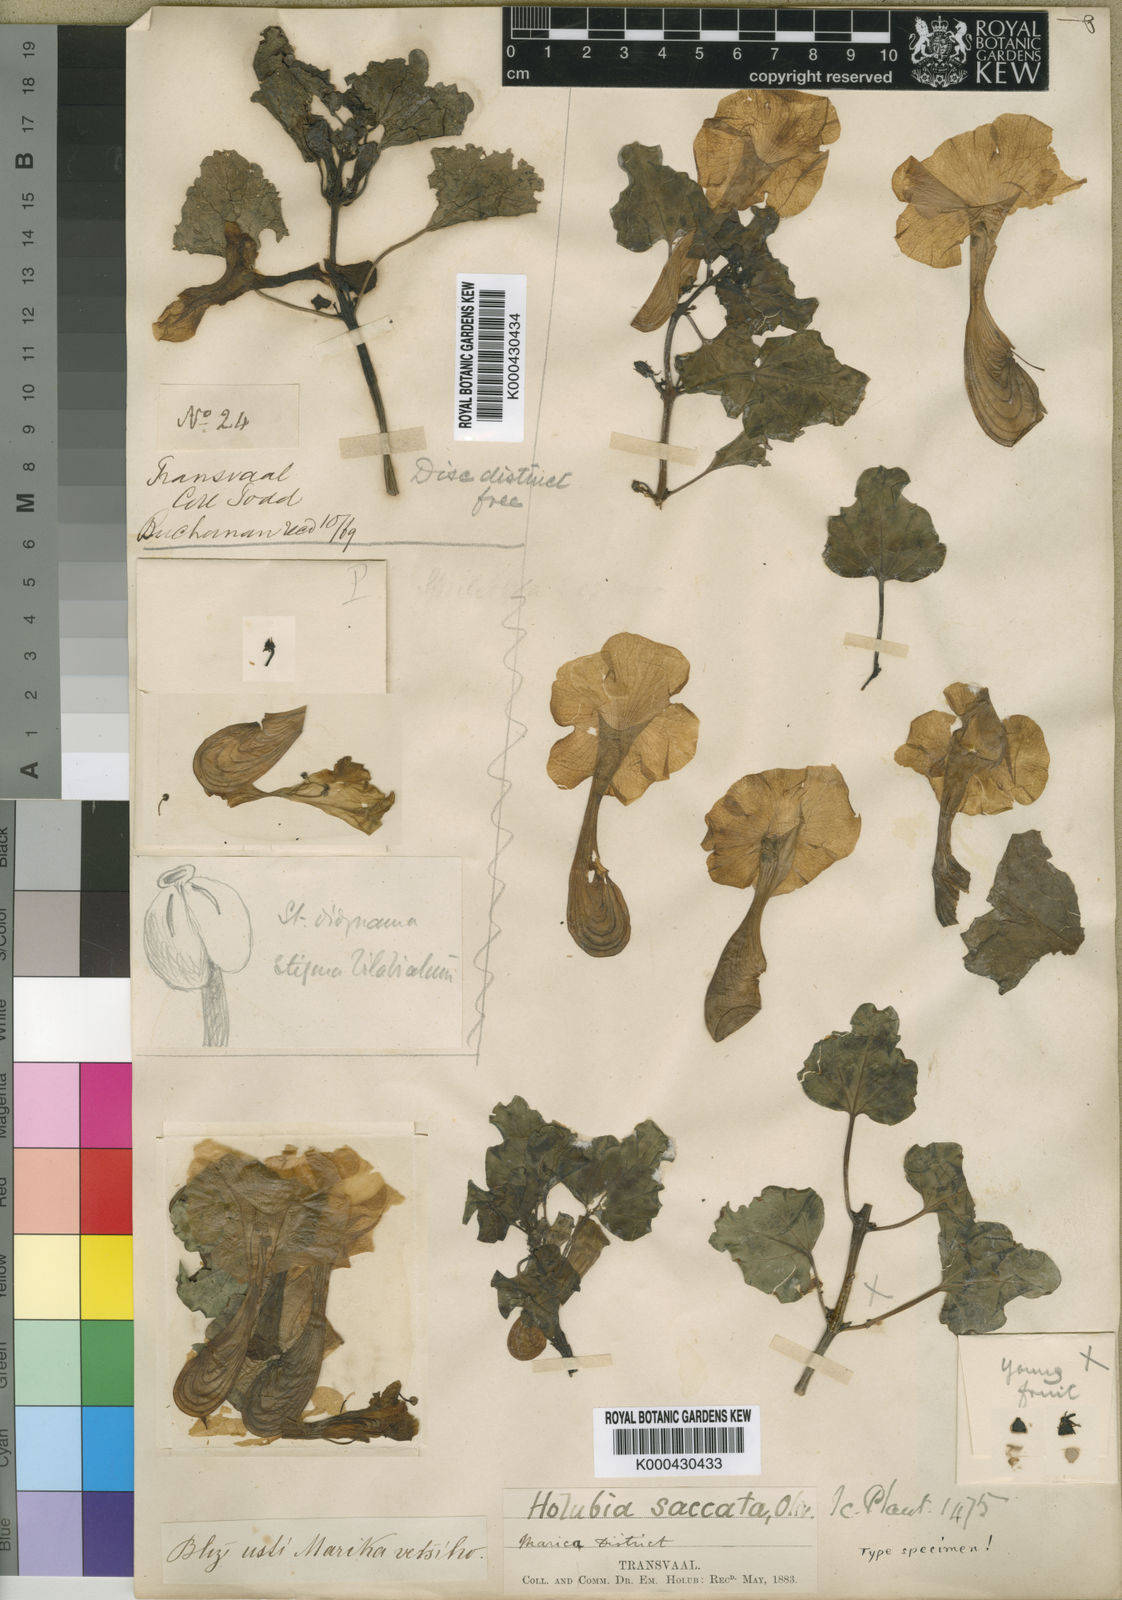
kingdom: Plantae
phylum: Tracheophyta
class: Magnoliopsida
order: Lamiales
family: Pedaliaceae
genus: Holubia
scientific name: Holubia saccata
